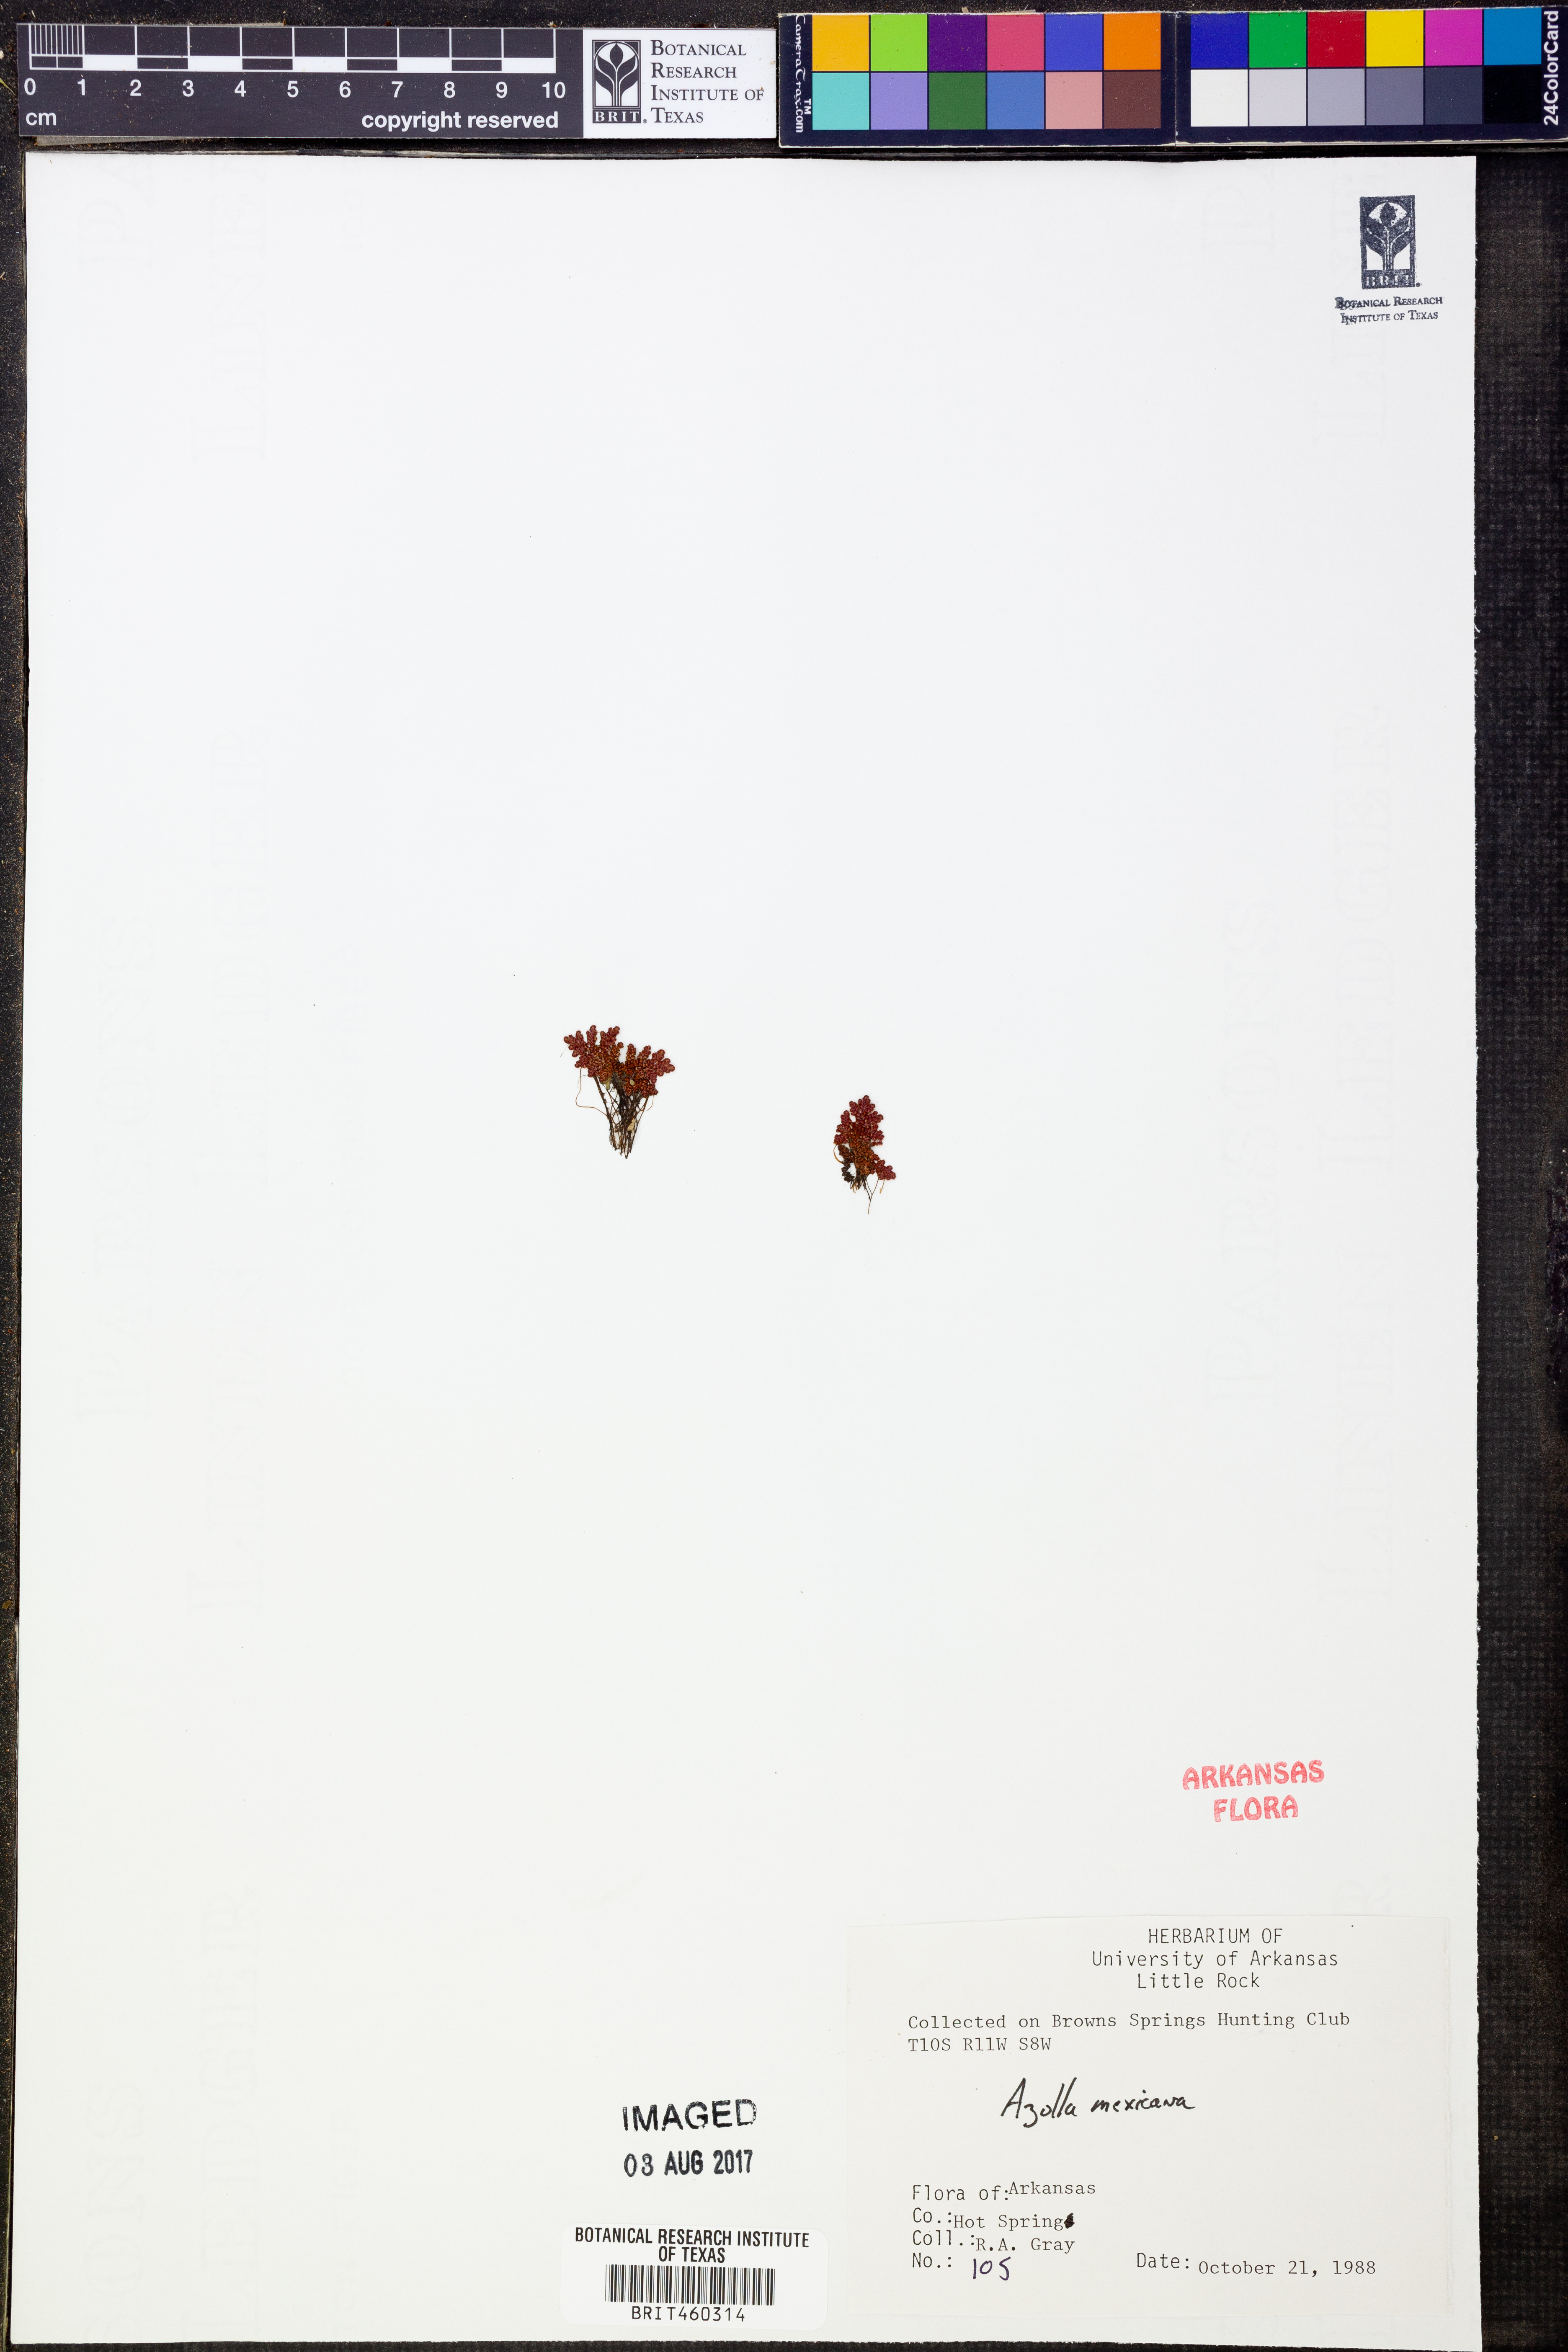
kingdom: Plantae
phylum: Tracheophyta
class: Polypodiopsida
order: Salviniales
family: Salviniaceae
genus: Azolla
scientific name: Azolla cristata
